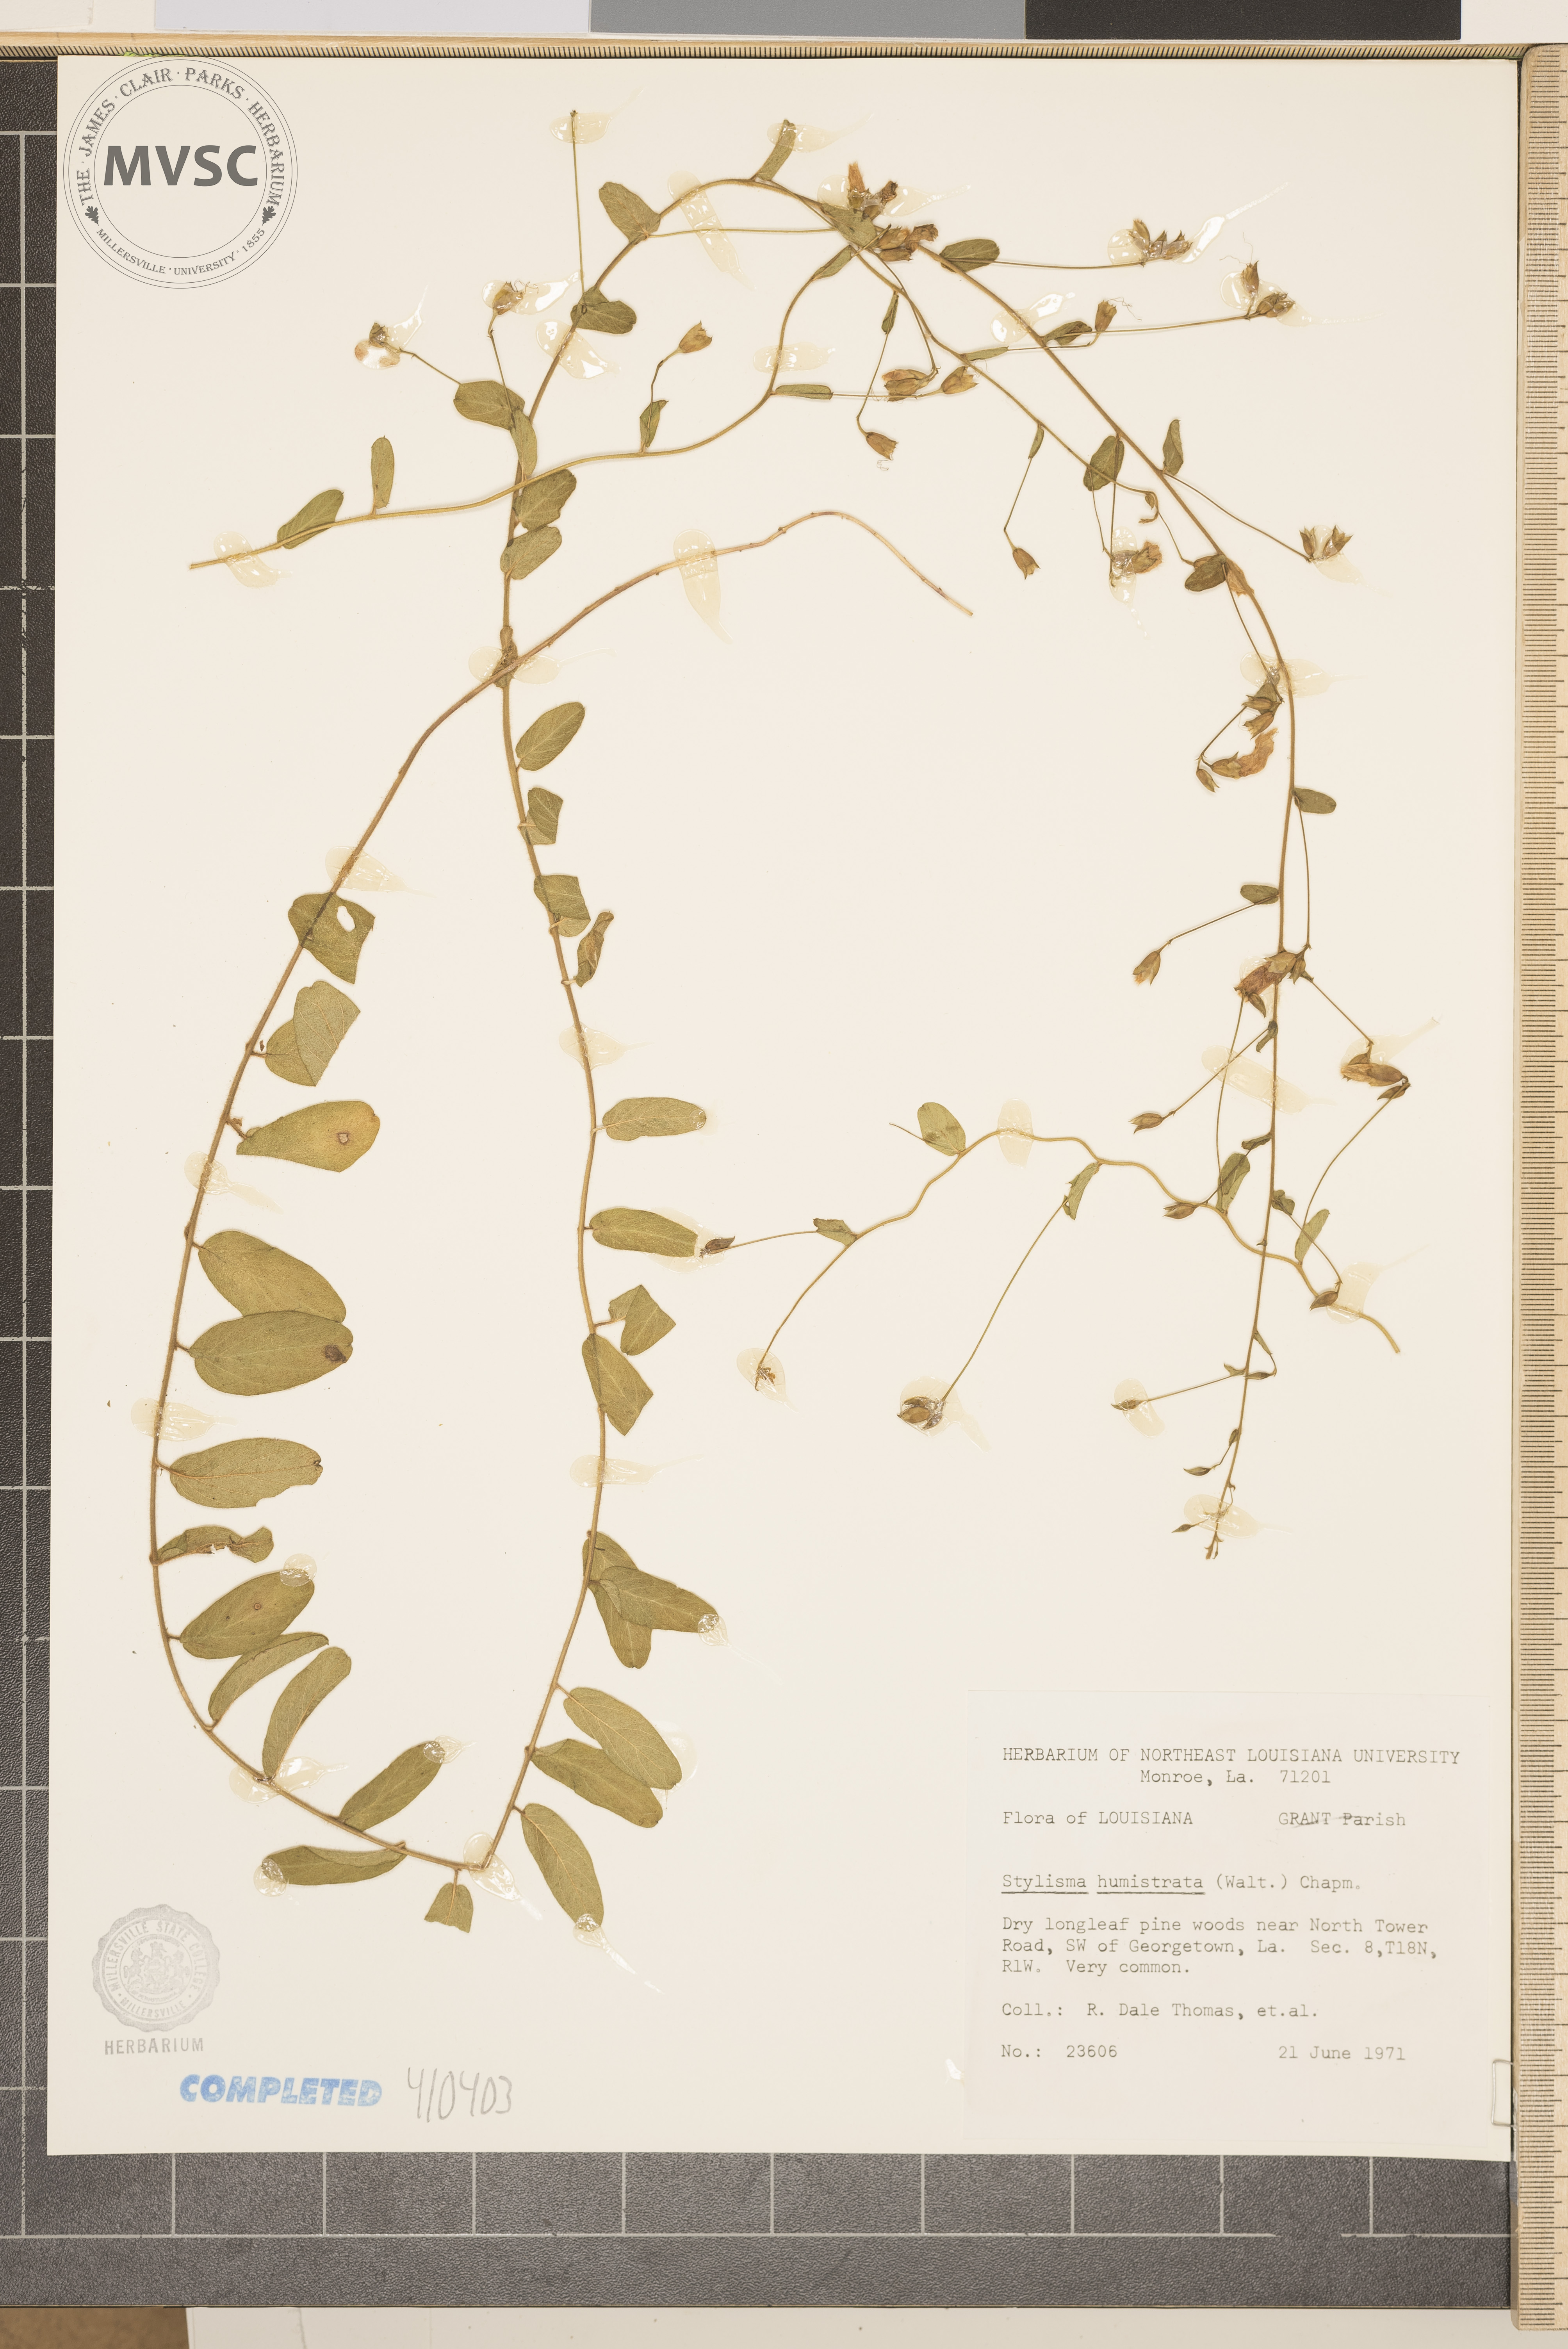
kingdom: Plantae
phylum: Tracheophyta
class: Magnoliopsida
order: Solanales
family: Convolvulaceae
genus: Stylisma
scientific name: Stylisma humistrata
